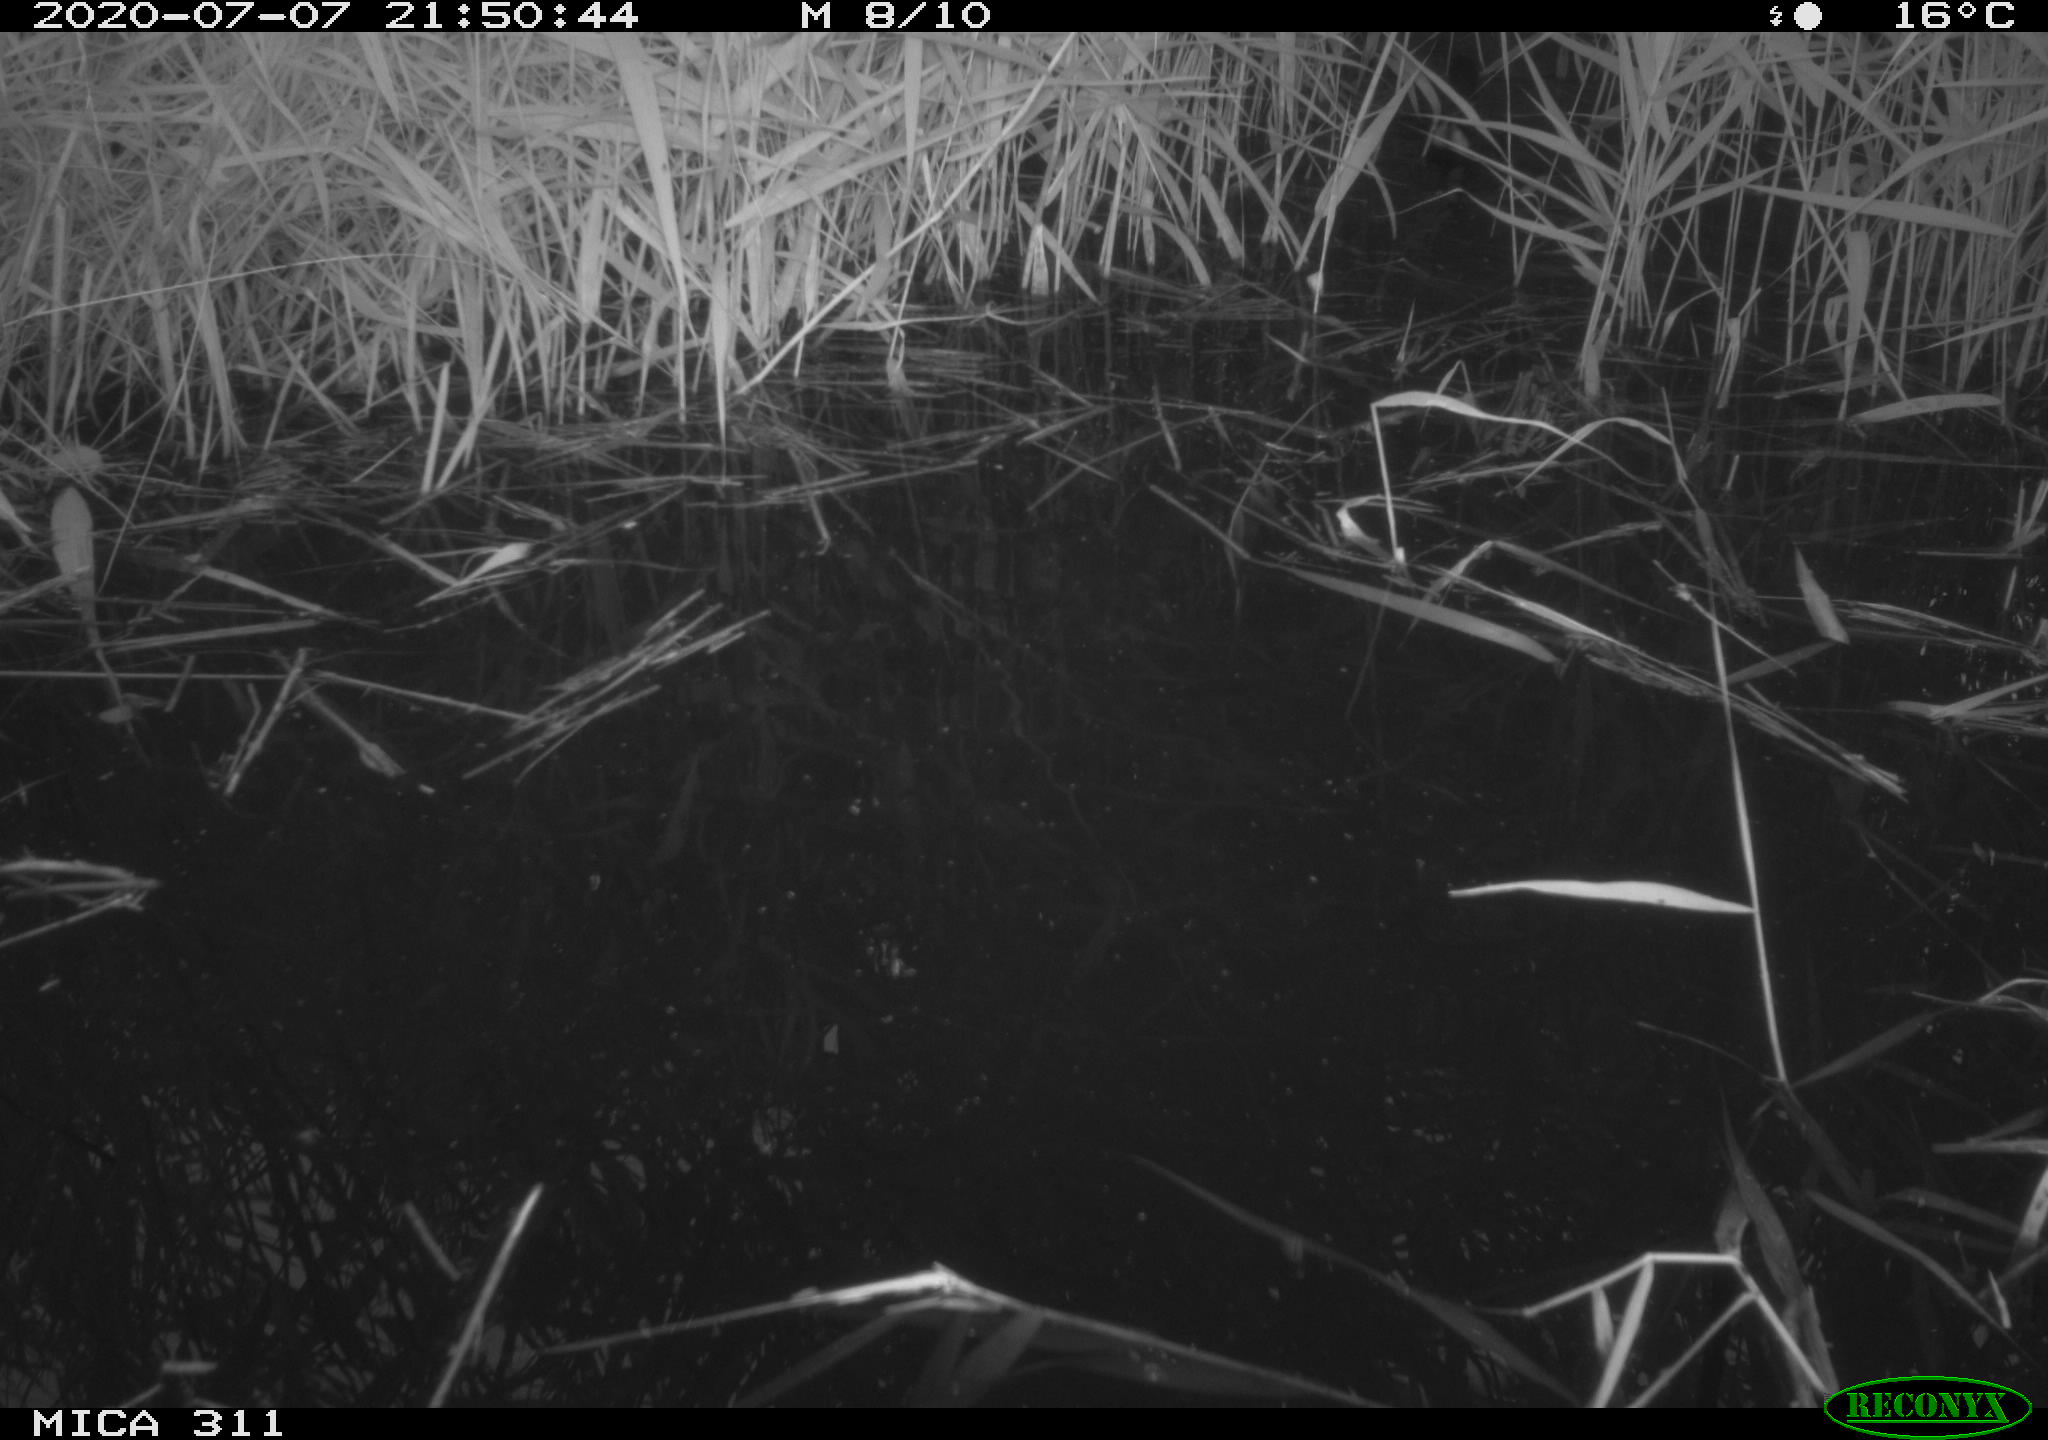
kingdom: Animalia
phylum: Chordata
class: Aves
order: Gruiformes
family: Rallidae
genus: Gallinula
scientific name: Gallinula chloropus
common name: Common moorhen
